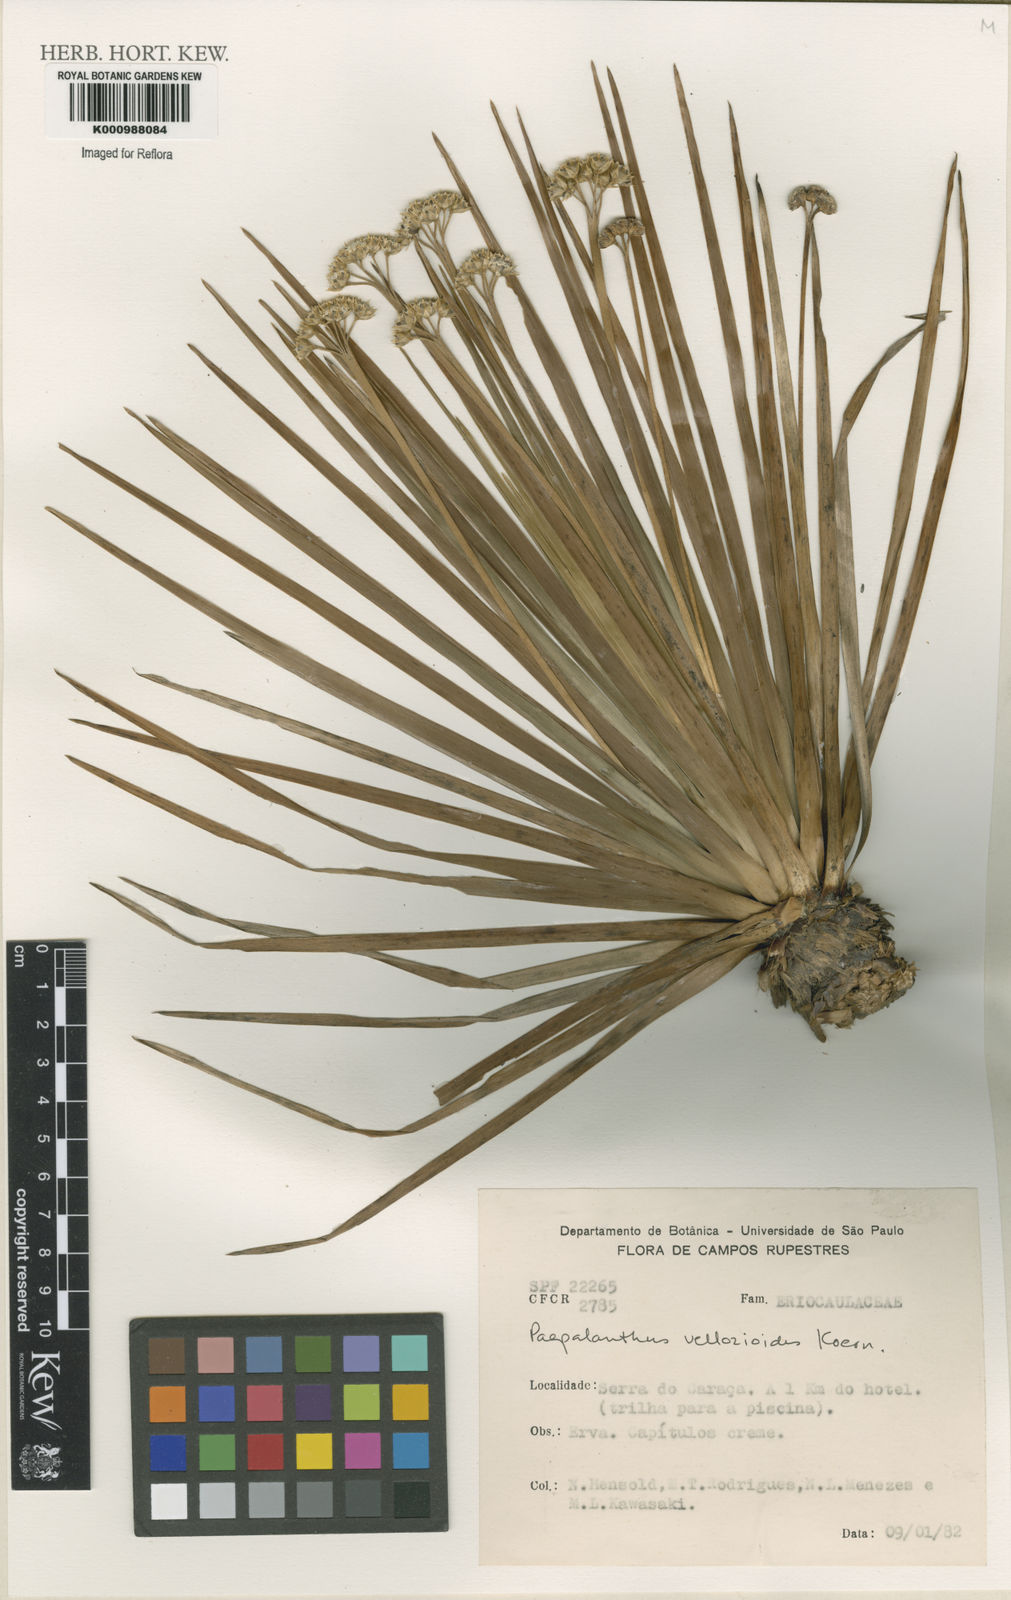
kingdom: Plantae
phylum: Tracheophyta
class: Liliopsida
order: Poales
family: Eriocaulaceae
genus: Paepalanthus
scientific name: Paepalanthus
